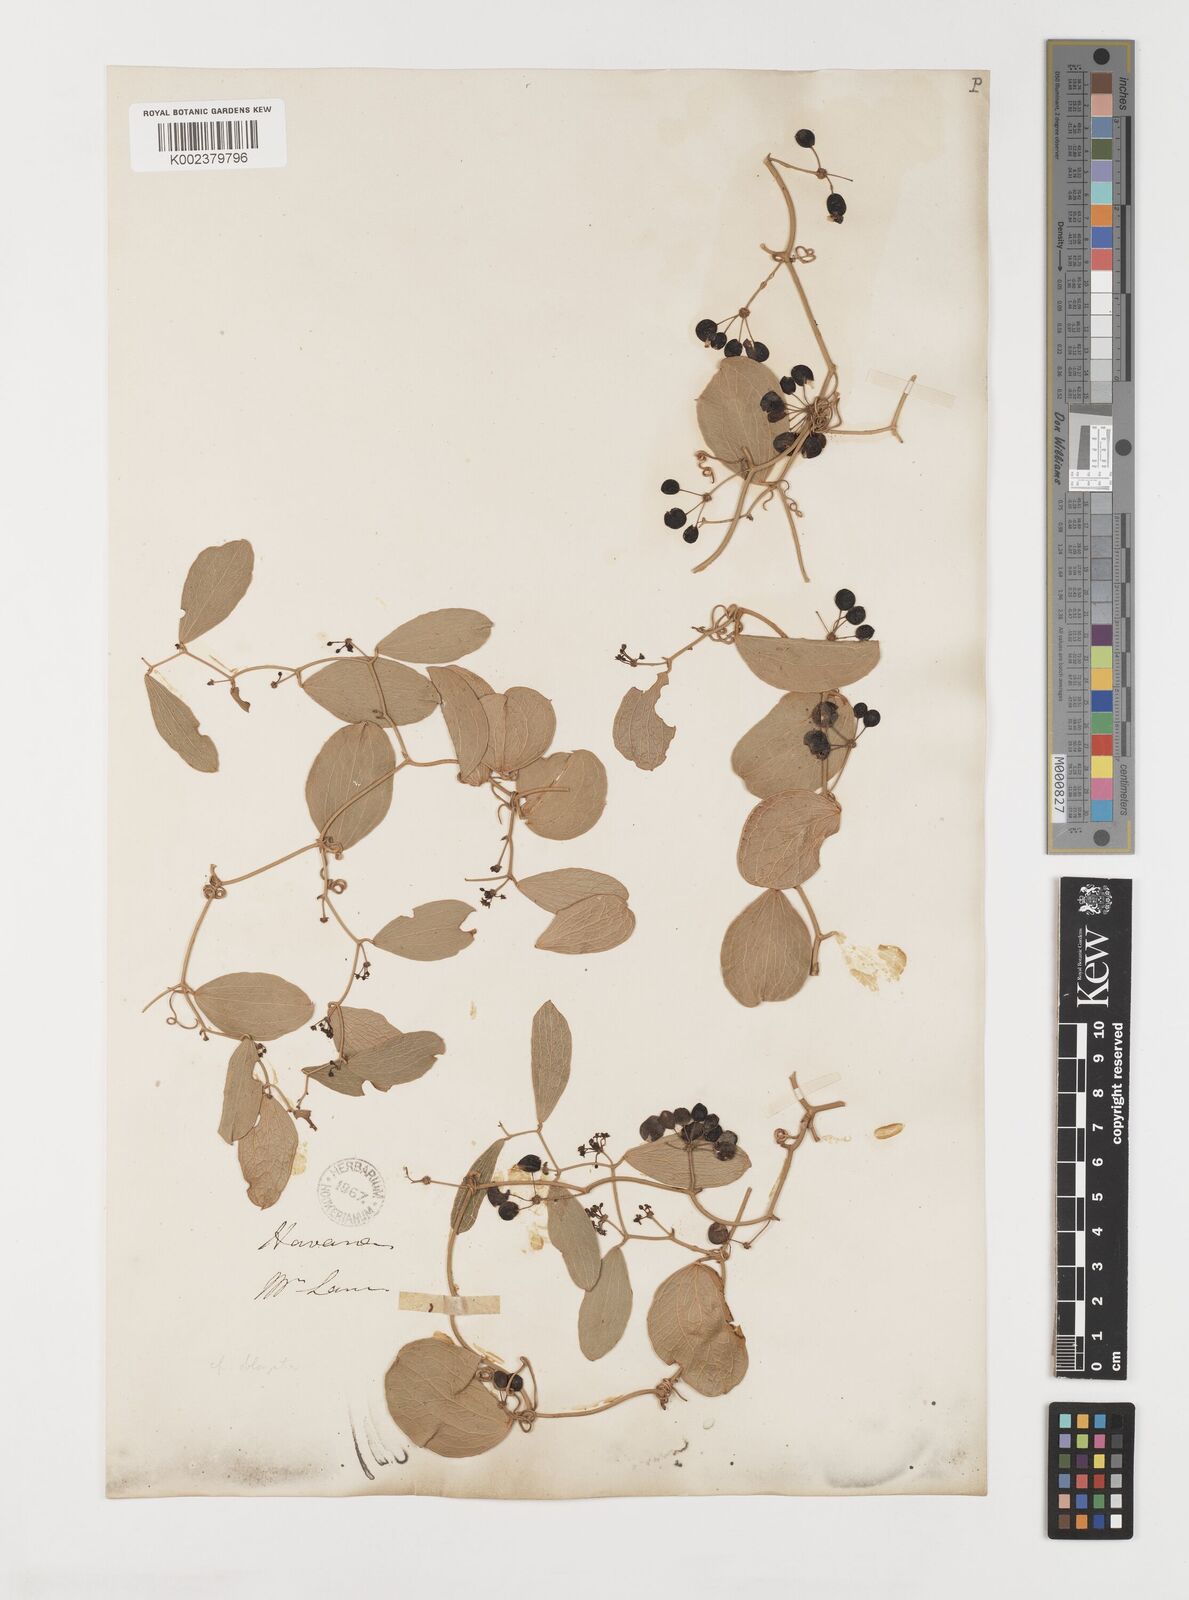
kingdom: Plantae
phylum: Tracheophyta
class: Liliopsida
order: Liliales
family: Smilacaceae
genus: Smilax
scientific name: Smilax havanensis
